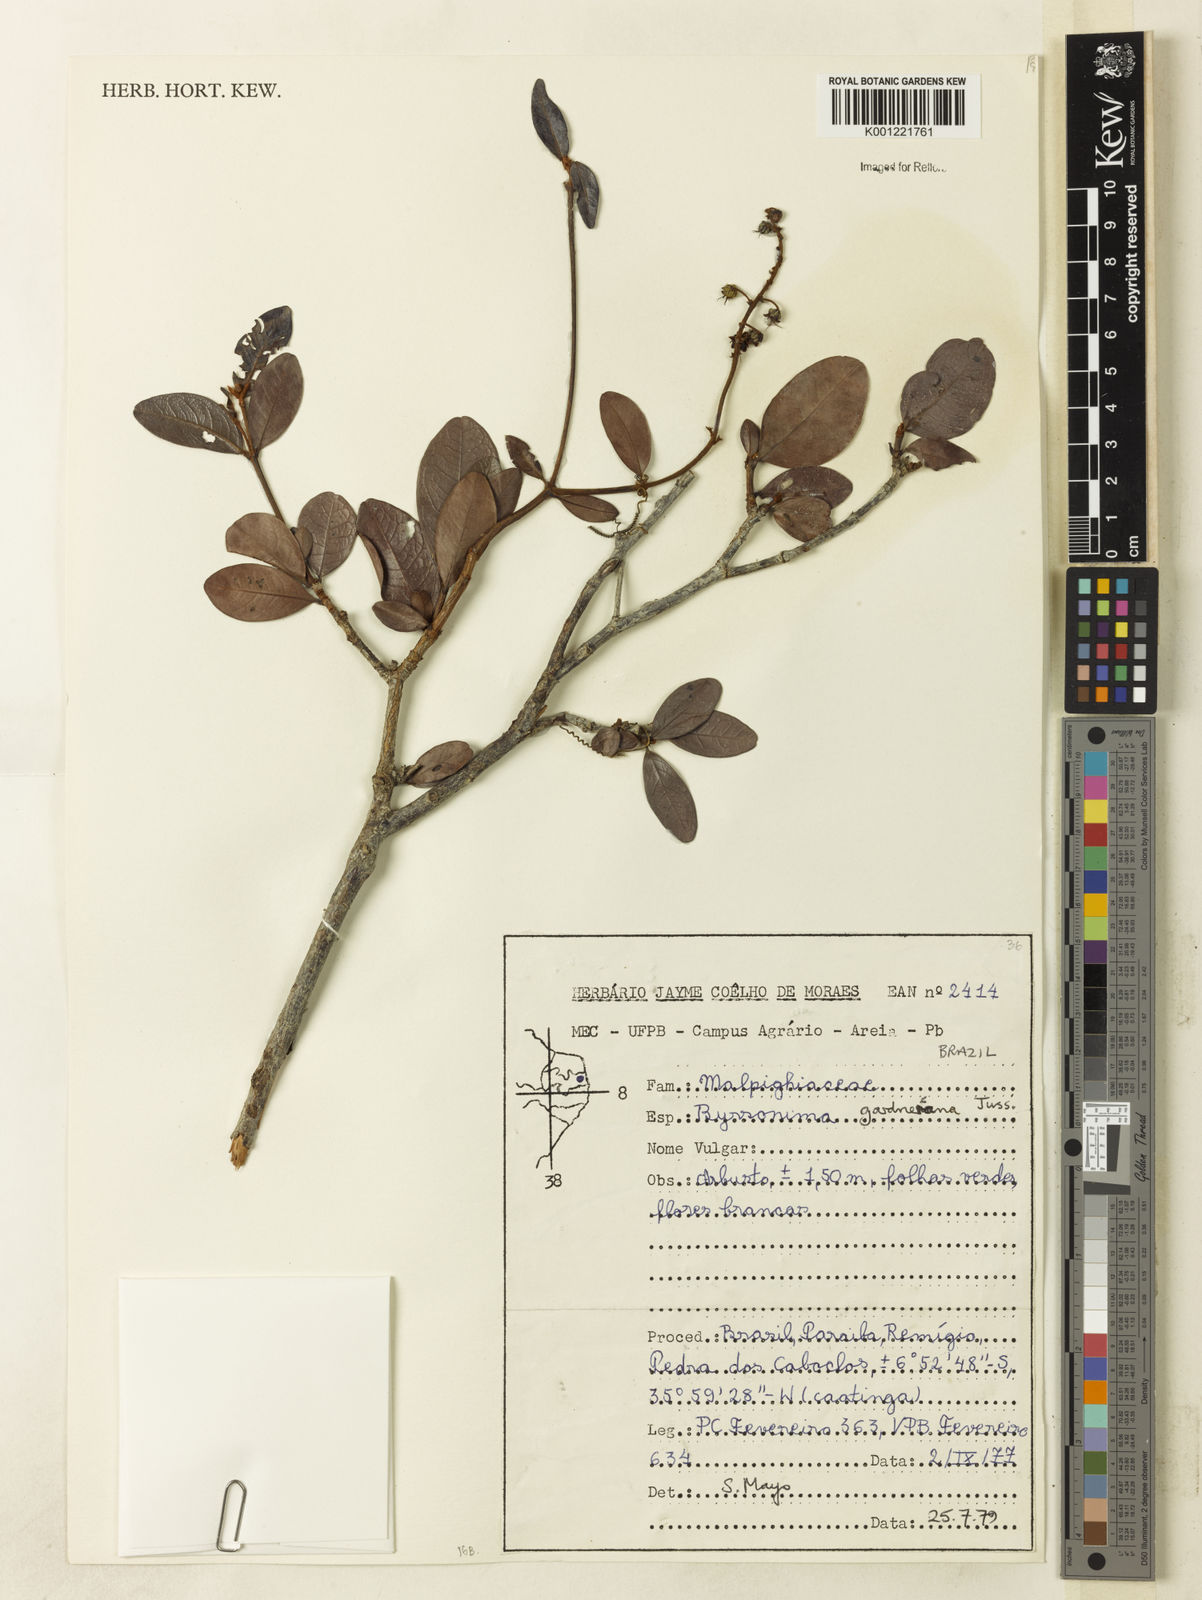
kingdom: Plantae
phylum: Tracheophyta
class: Magnoliopsida
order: Malpighiales
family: Malpighiaceae
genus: Byrsonima
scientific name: Byrsonima gardneriana
